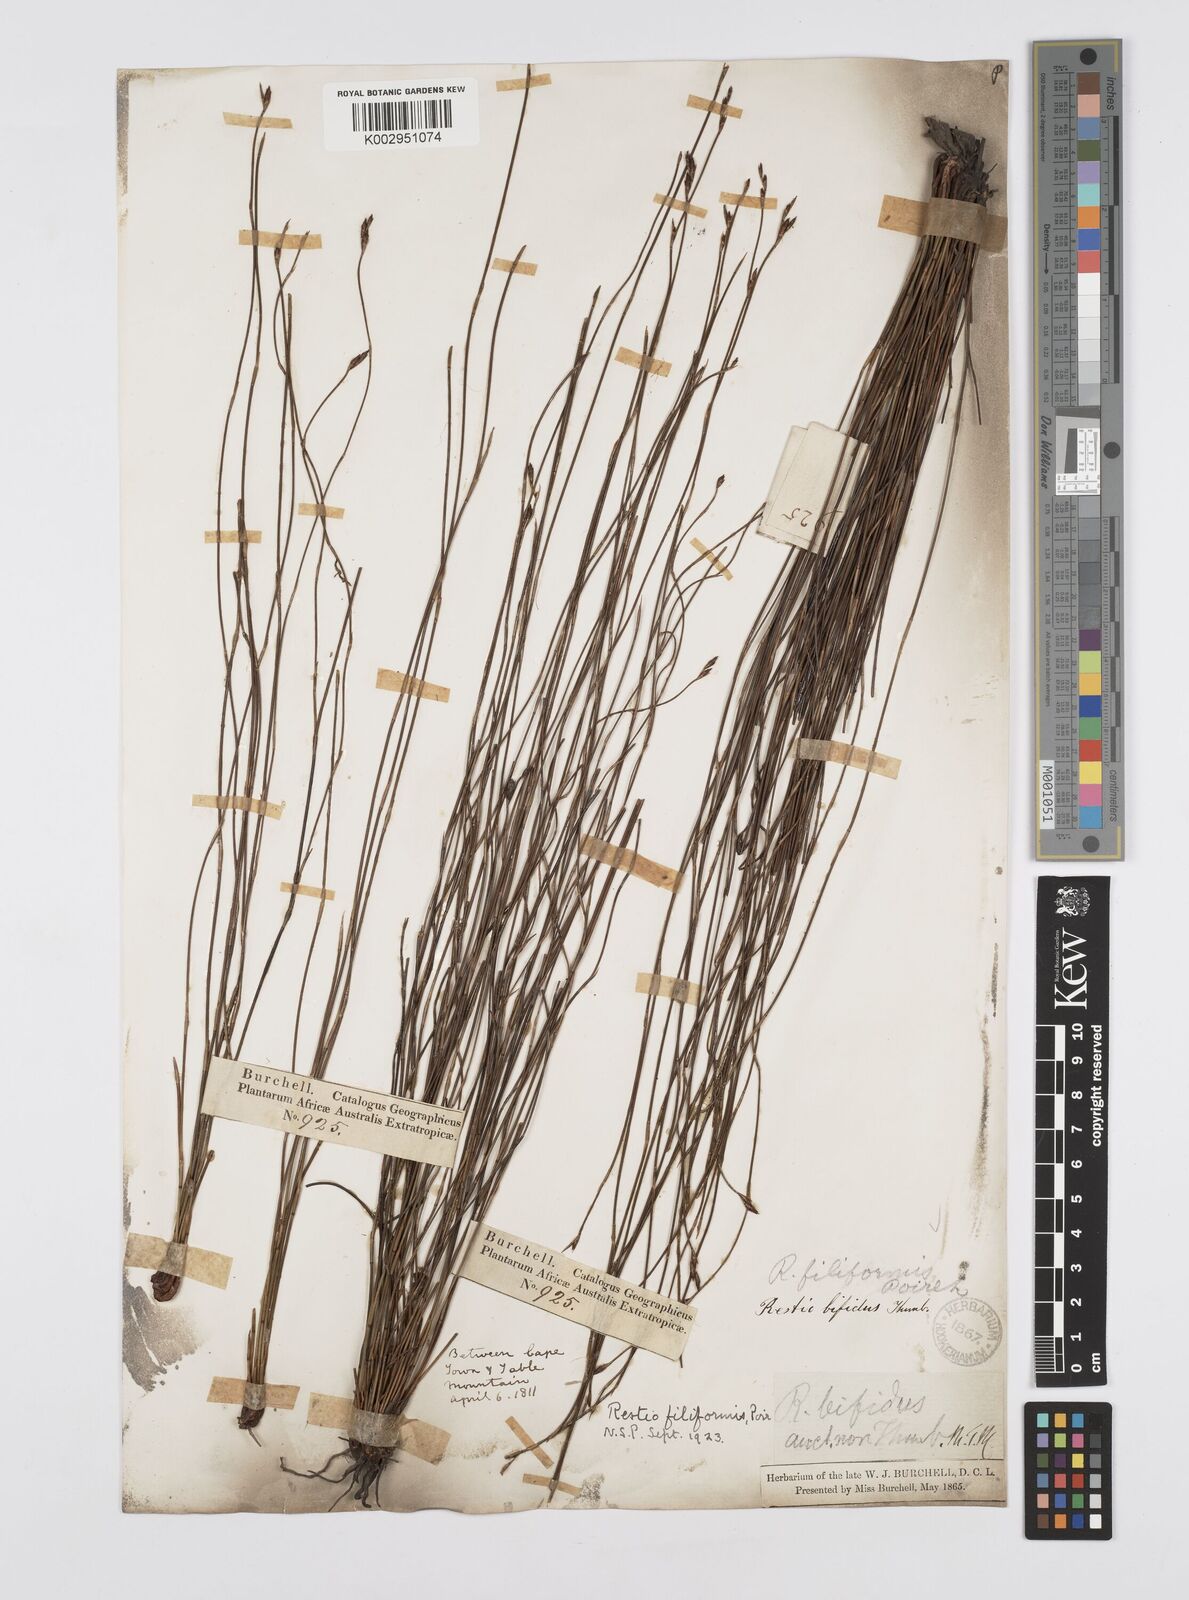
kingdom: Plantae
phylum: Tracheophyta
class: Liliopsida
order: Poales
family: Restionaceae
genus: Restio
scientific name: Restio filiformis
